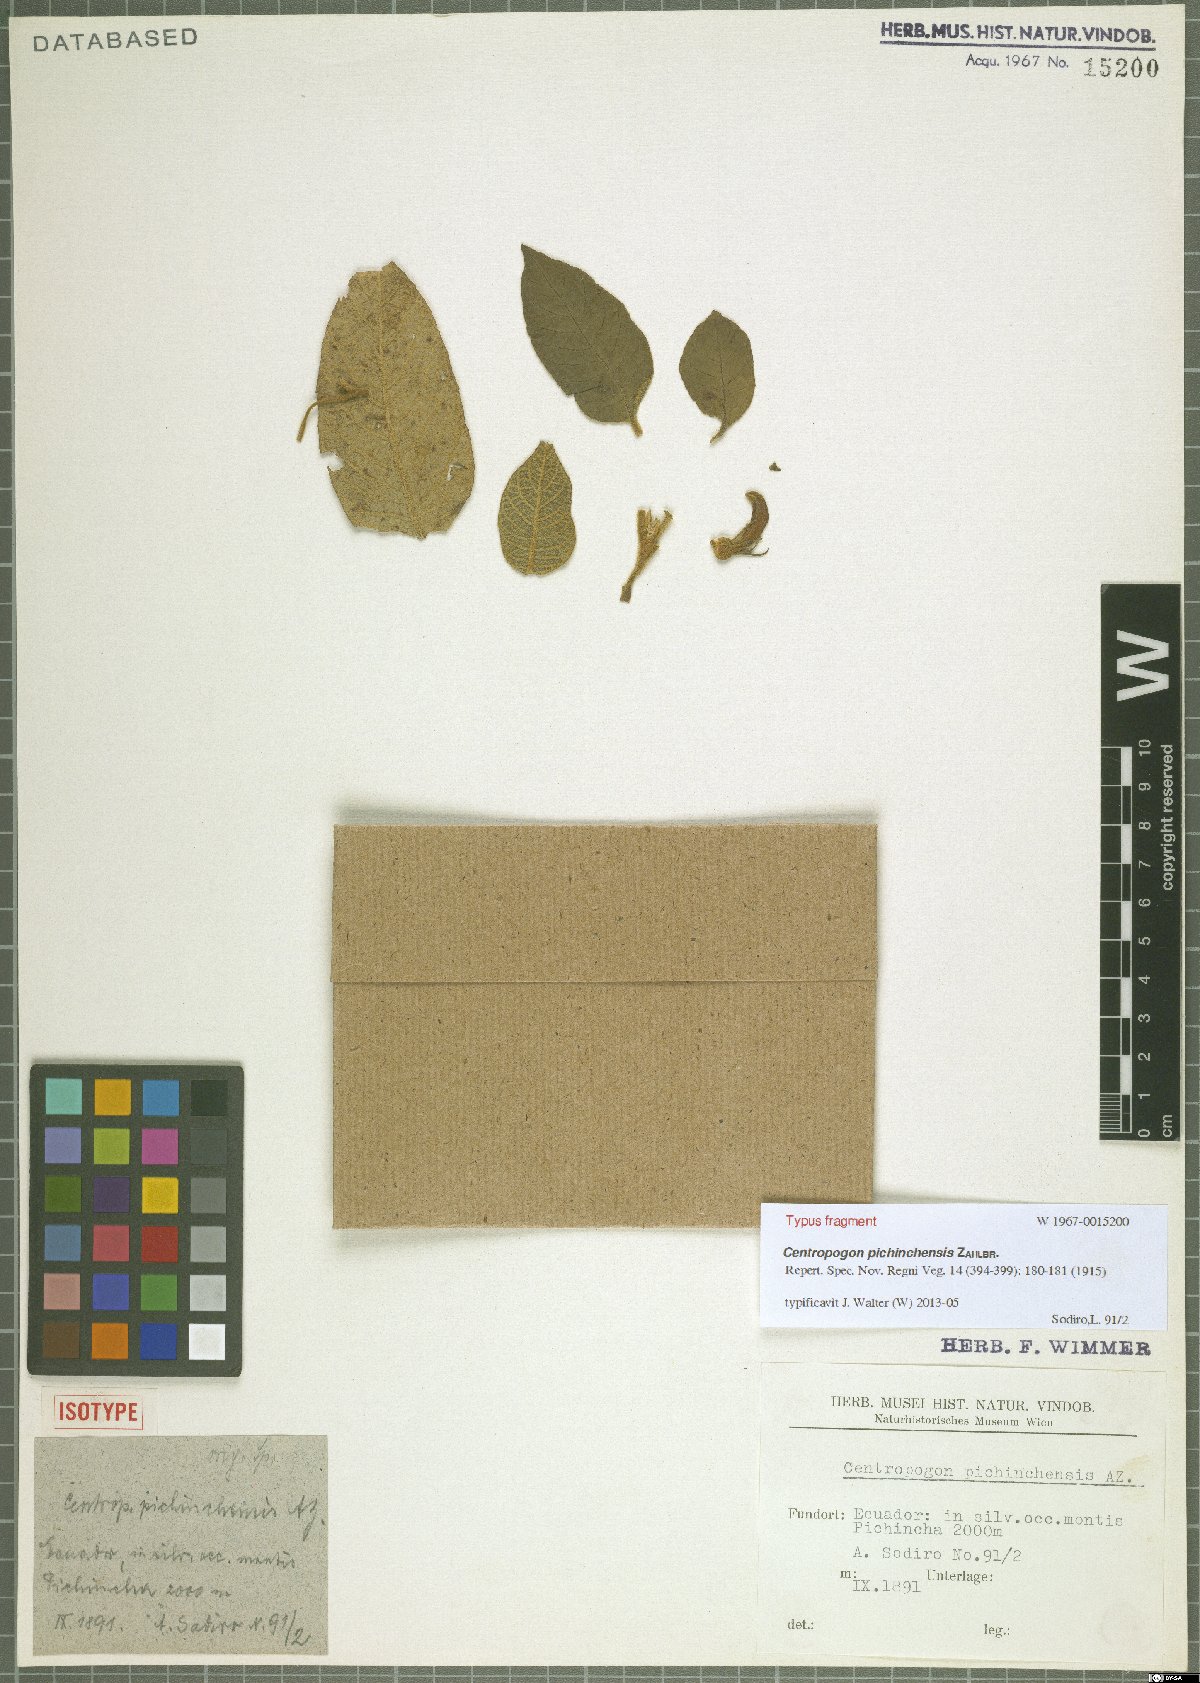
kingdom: Plantae
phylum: Tracheophyta
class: Magnoliopsida
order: Asterales
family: Campanulaceae
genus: Centropogon
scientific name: Centropogon pichinchensis
